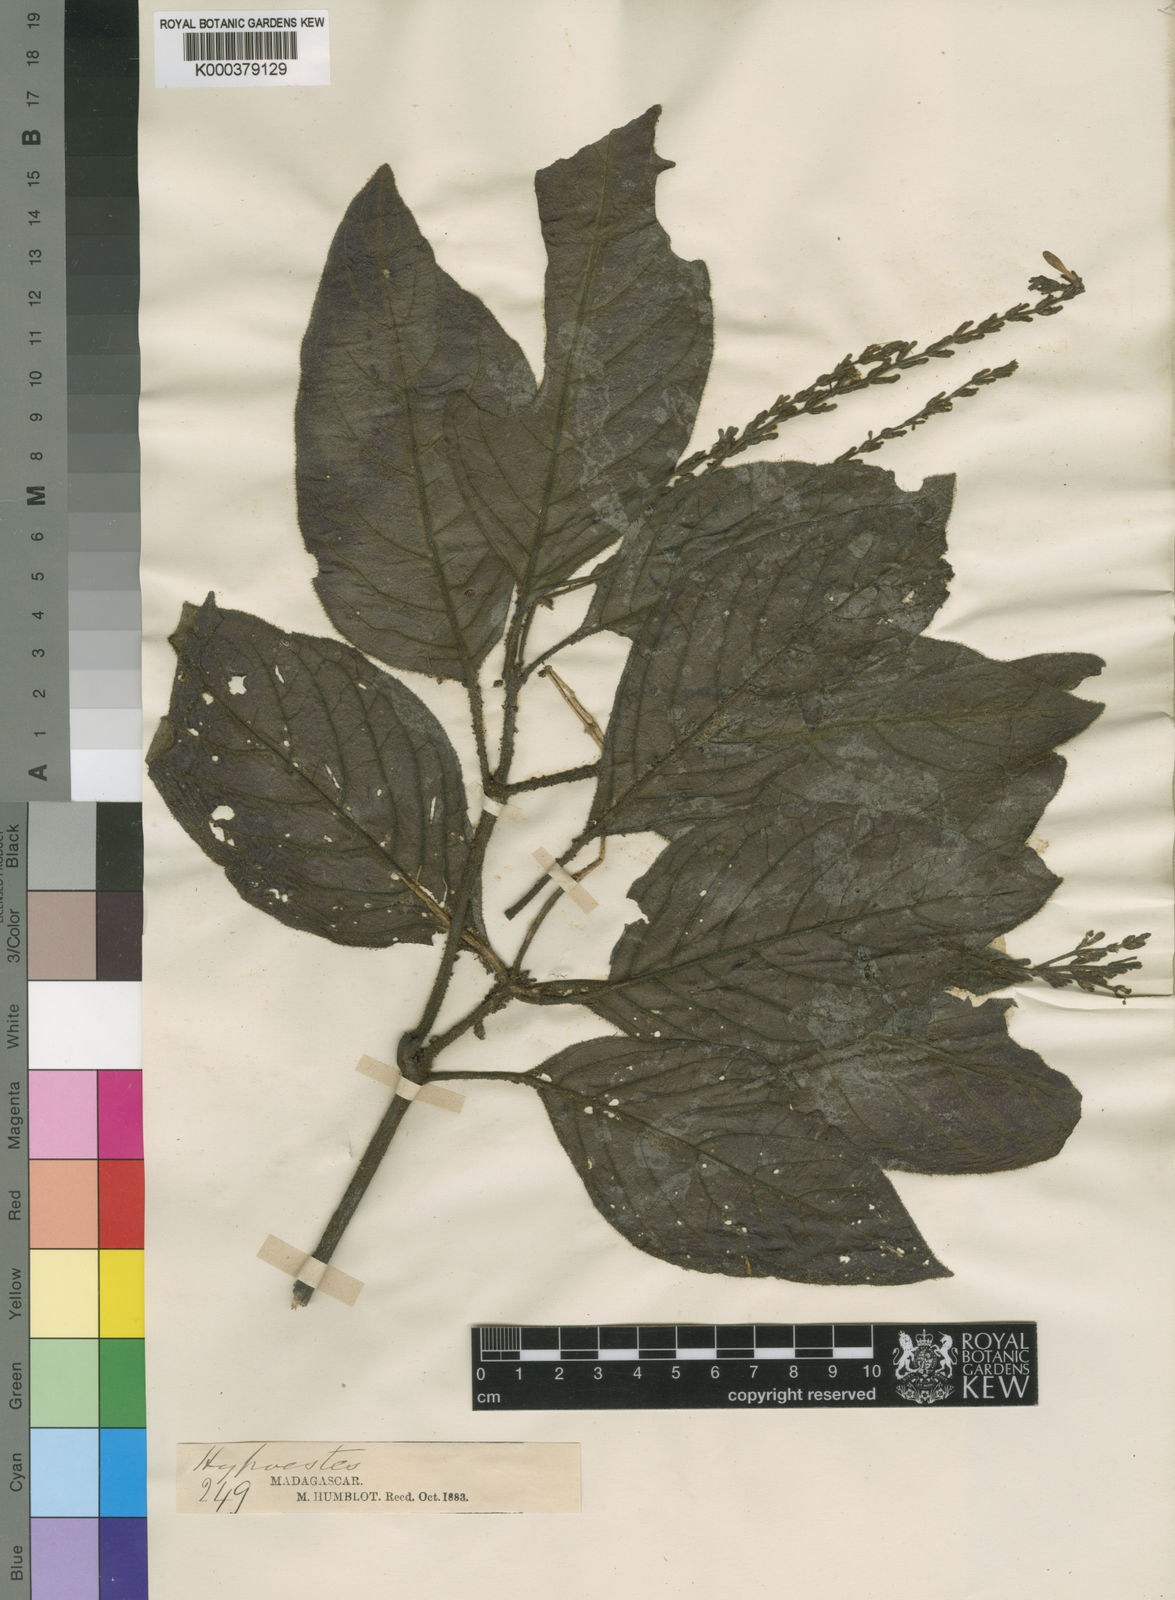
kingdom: Plantae
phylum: Tracheophyta
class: Magnoliopsida
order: Lamiales
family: Acanthaceae
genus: Hypoestes
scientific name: Hypoestes
